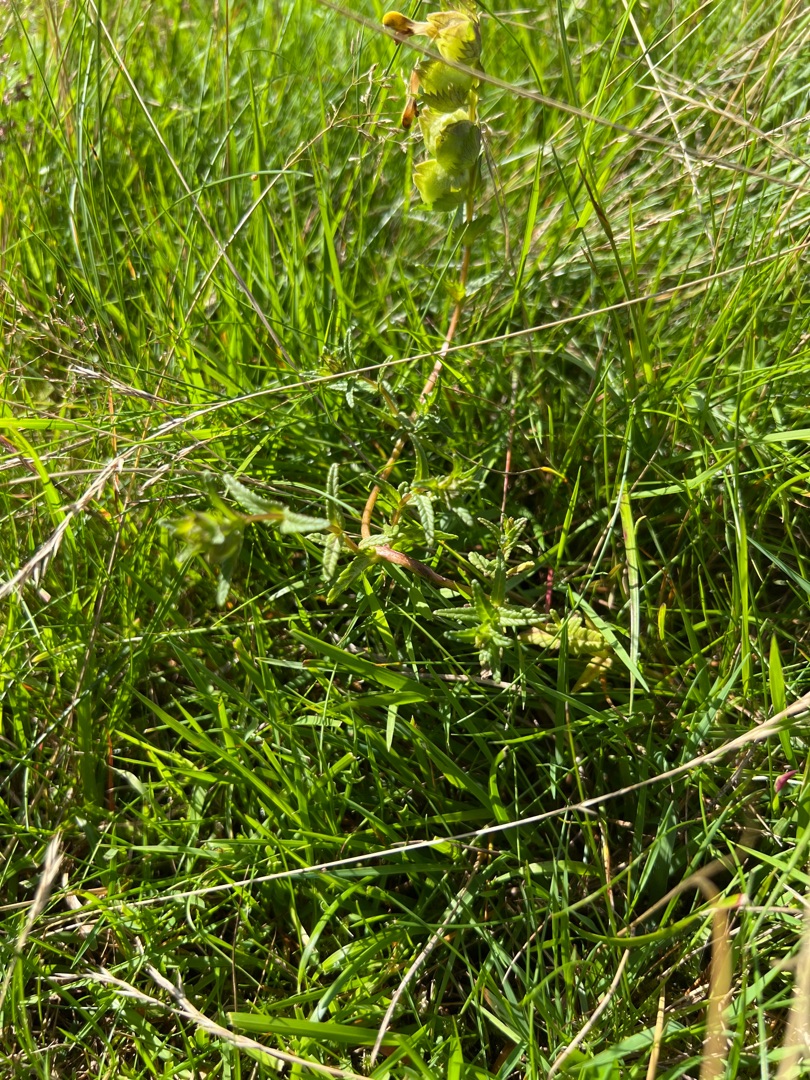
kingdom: Plantae
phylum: Tracheophyta
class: Magnoliopsida
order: Lamiales
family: Orobanchaceae
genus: Rhinanthus
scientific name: Rhinanthus minor
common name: Liden skjaller
